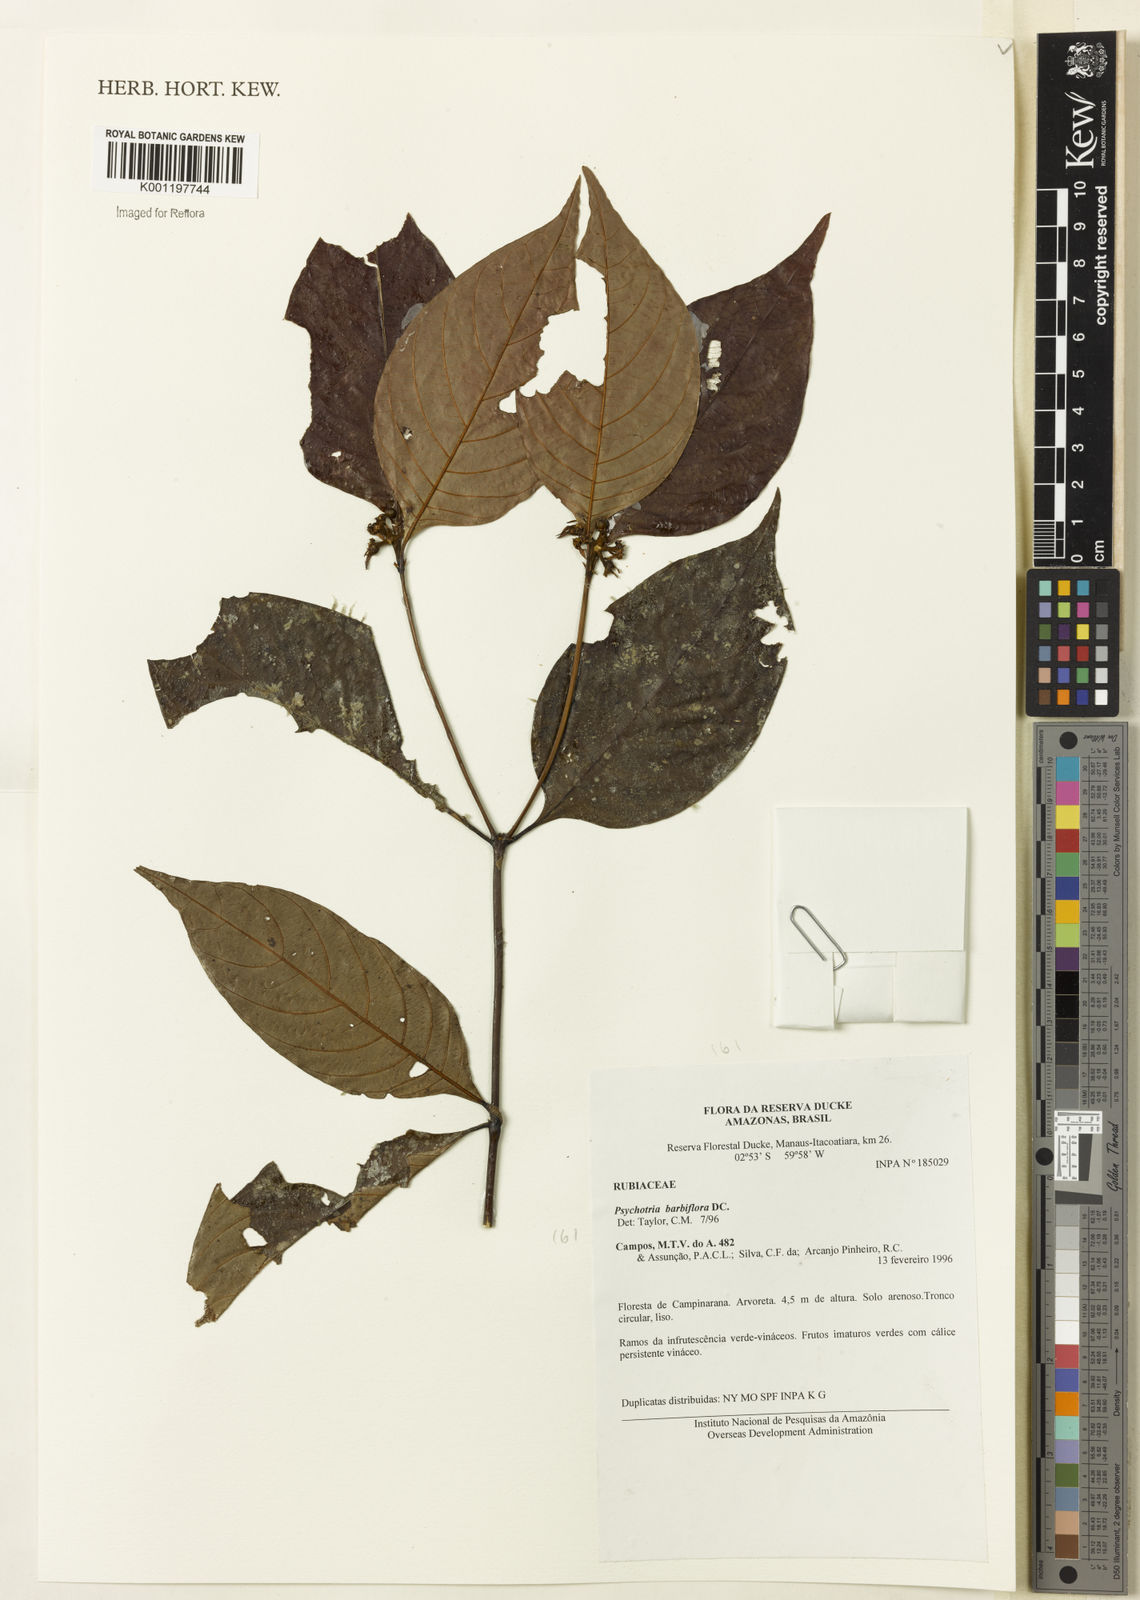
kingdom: Plantae
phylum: Tracheophyta
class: Magnoliopsida
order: Gentianales
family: Rubiaceae
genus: Palicourea
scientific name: Palicourea hoffmannseggiana
